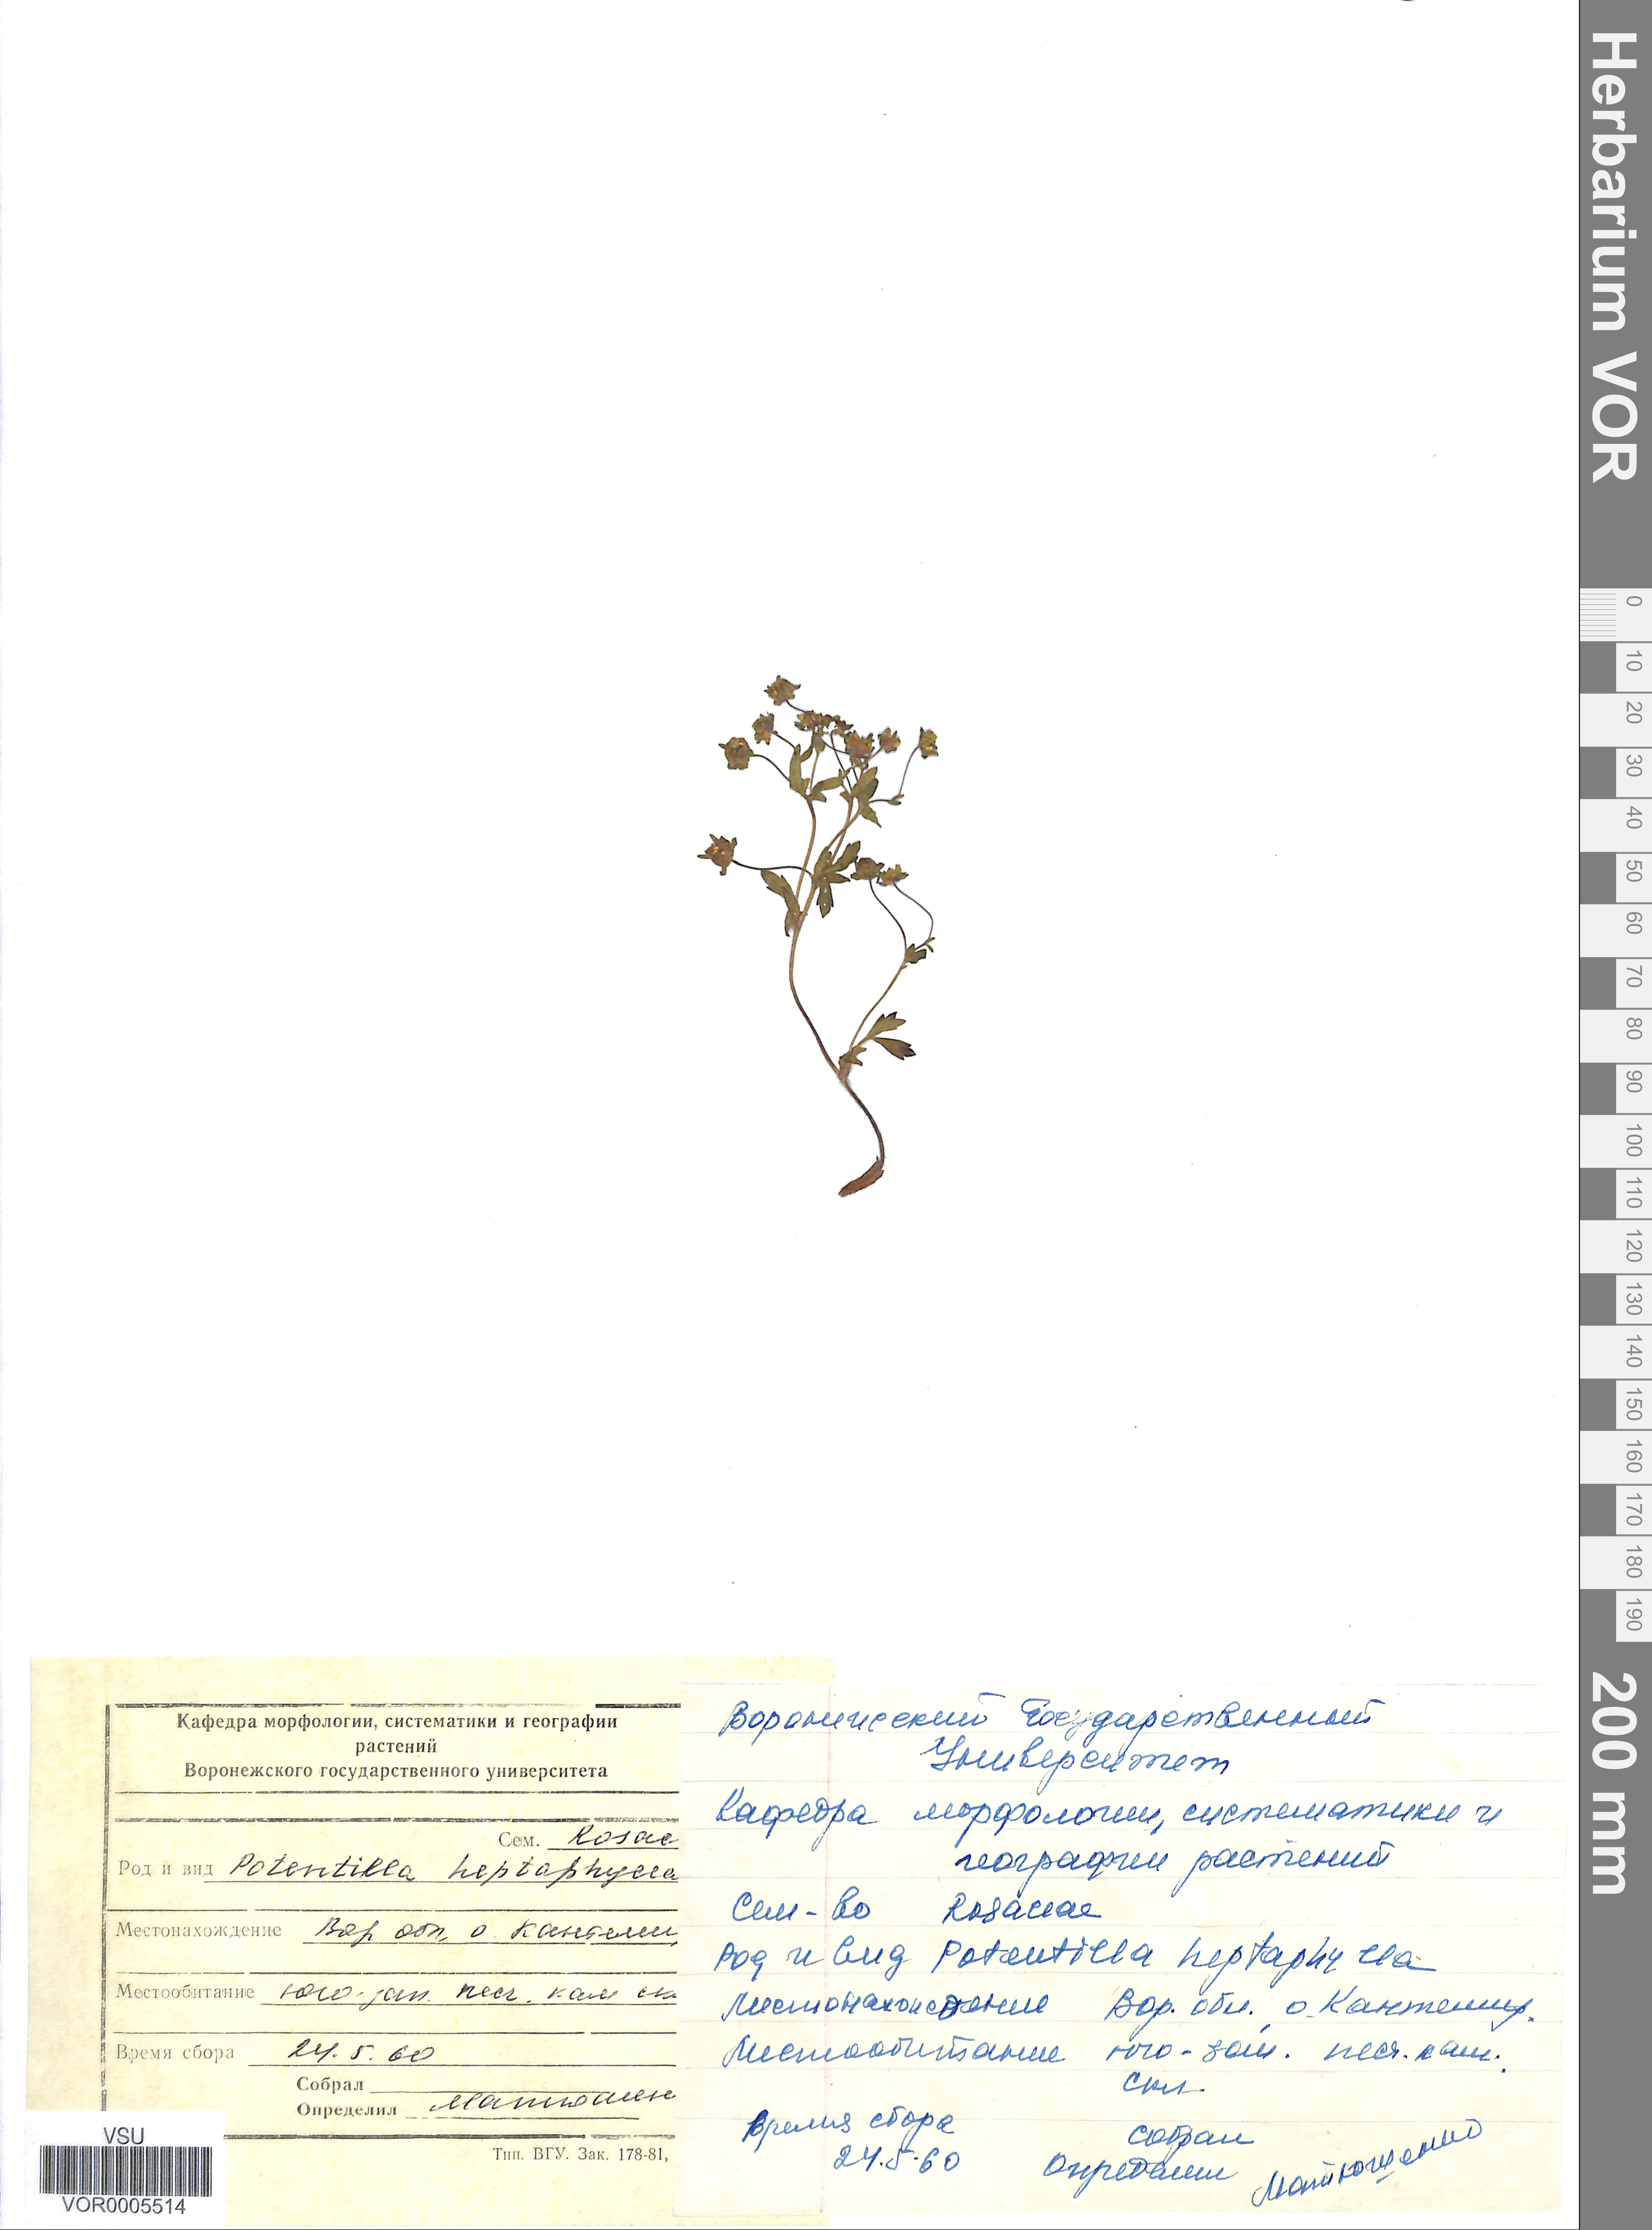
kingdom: Plantae
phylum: Tracheophyta
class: Magnoliopsida
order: Rosales
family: Rosaceae
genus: Potentilla
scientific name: Potentilla heptaphylla
